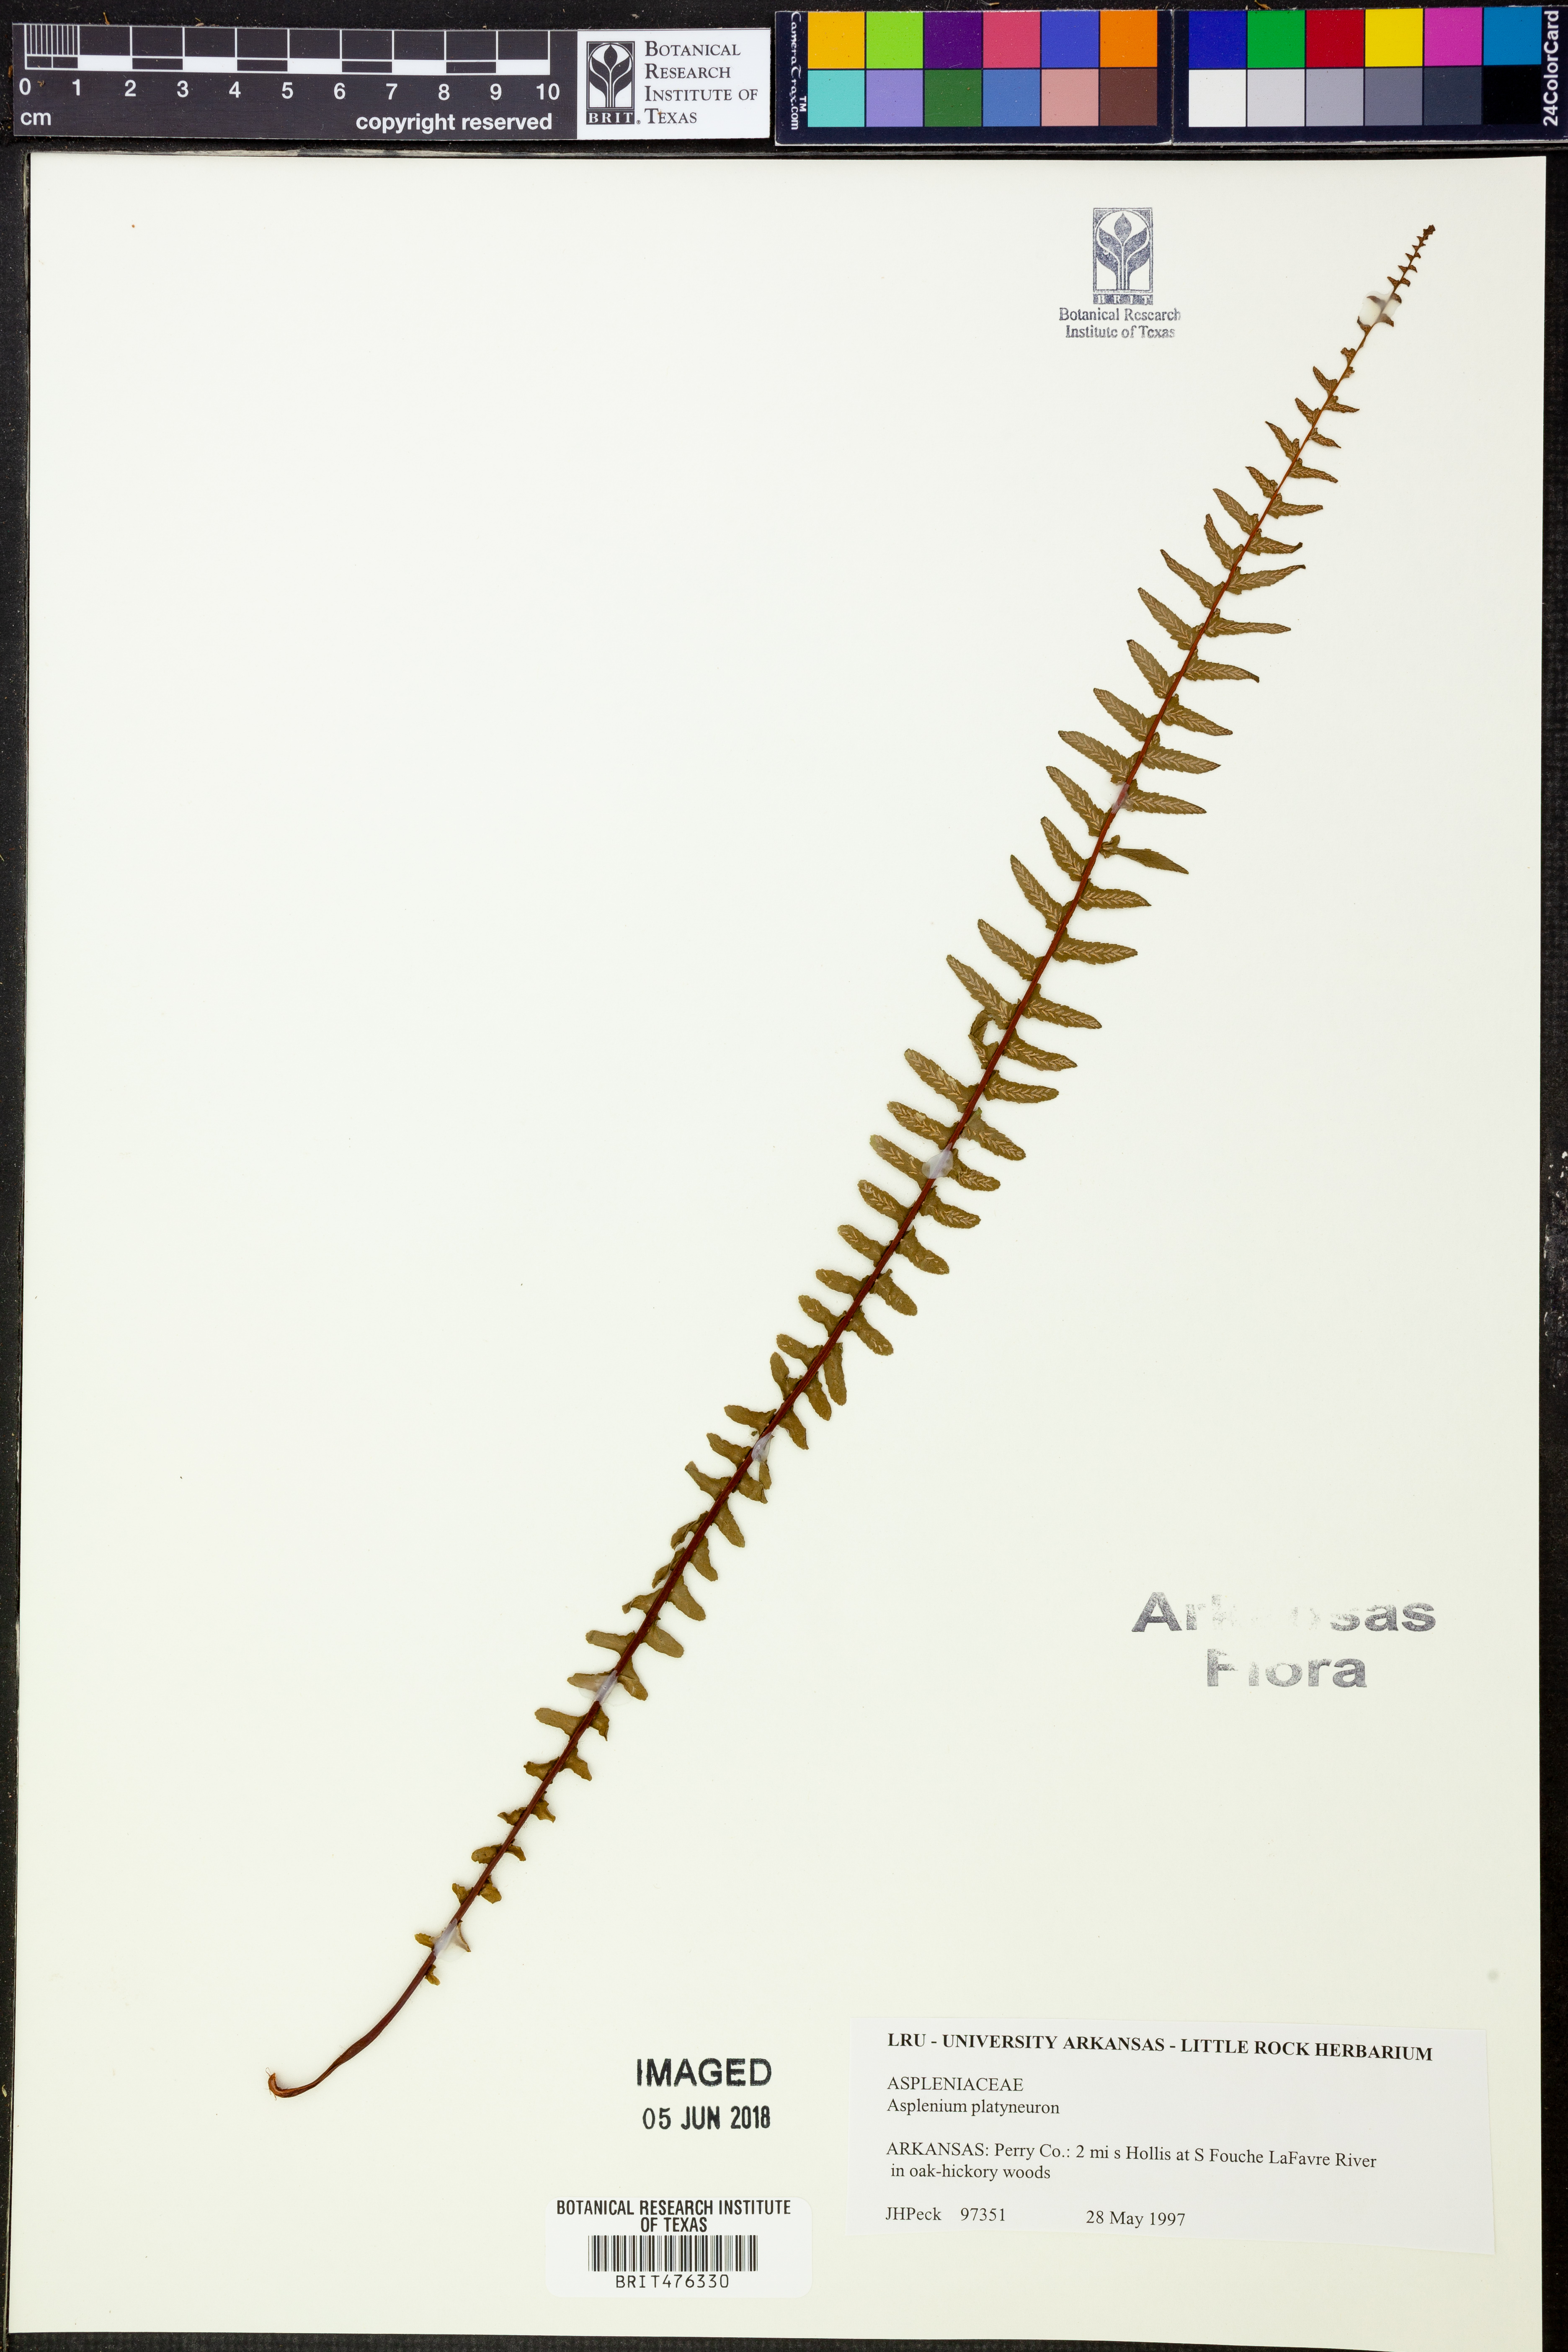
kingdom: Plantae
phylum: Tracheophyta
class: Polypodiopsida
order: Polypodiales
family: Aspleniaceae
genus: Asplenium
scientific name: Asplenium platyneuron
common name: Ebony spleenwort
